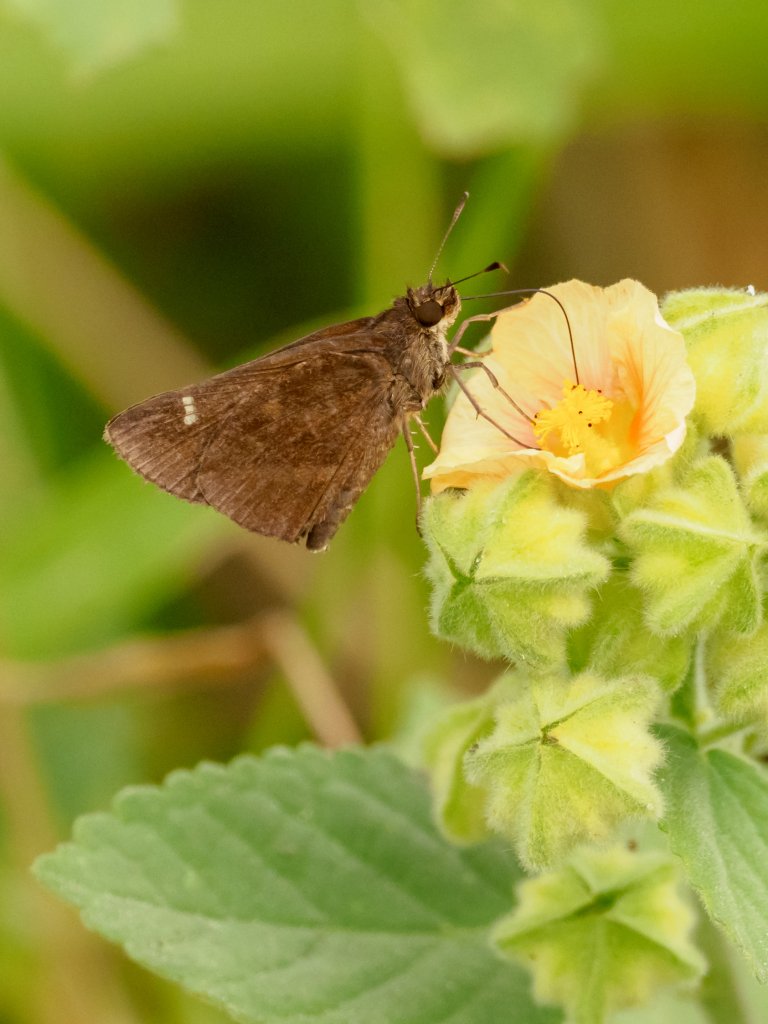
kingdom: Animalia
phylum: Arthropoda
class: Insecta
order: Lepidoptera
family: Hesperiidae
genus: Lerema
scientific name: Lerema accius
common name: Clouded Skipper
